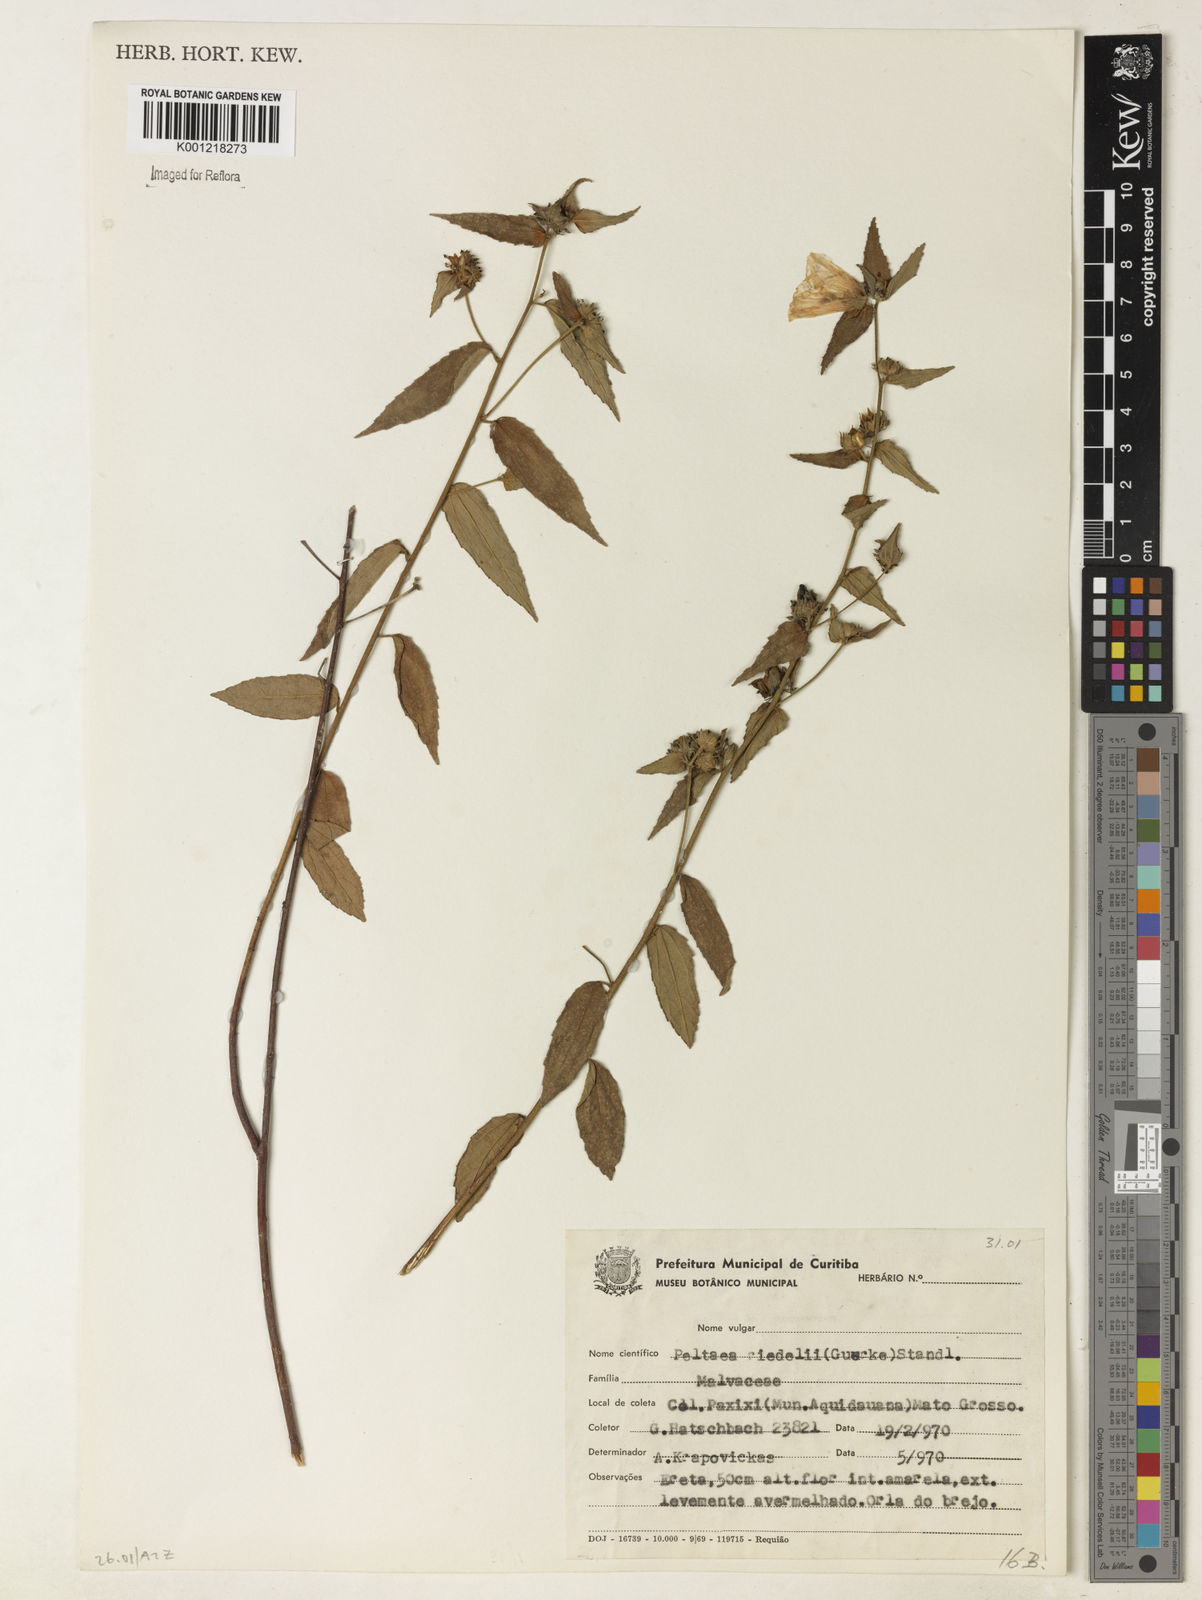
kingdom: Plantae
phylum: Tracheophyta
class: Magnoliopsida
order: Malvales
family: Malvaceae
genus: Peltaea
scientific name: Peltaea
